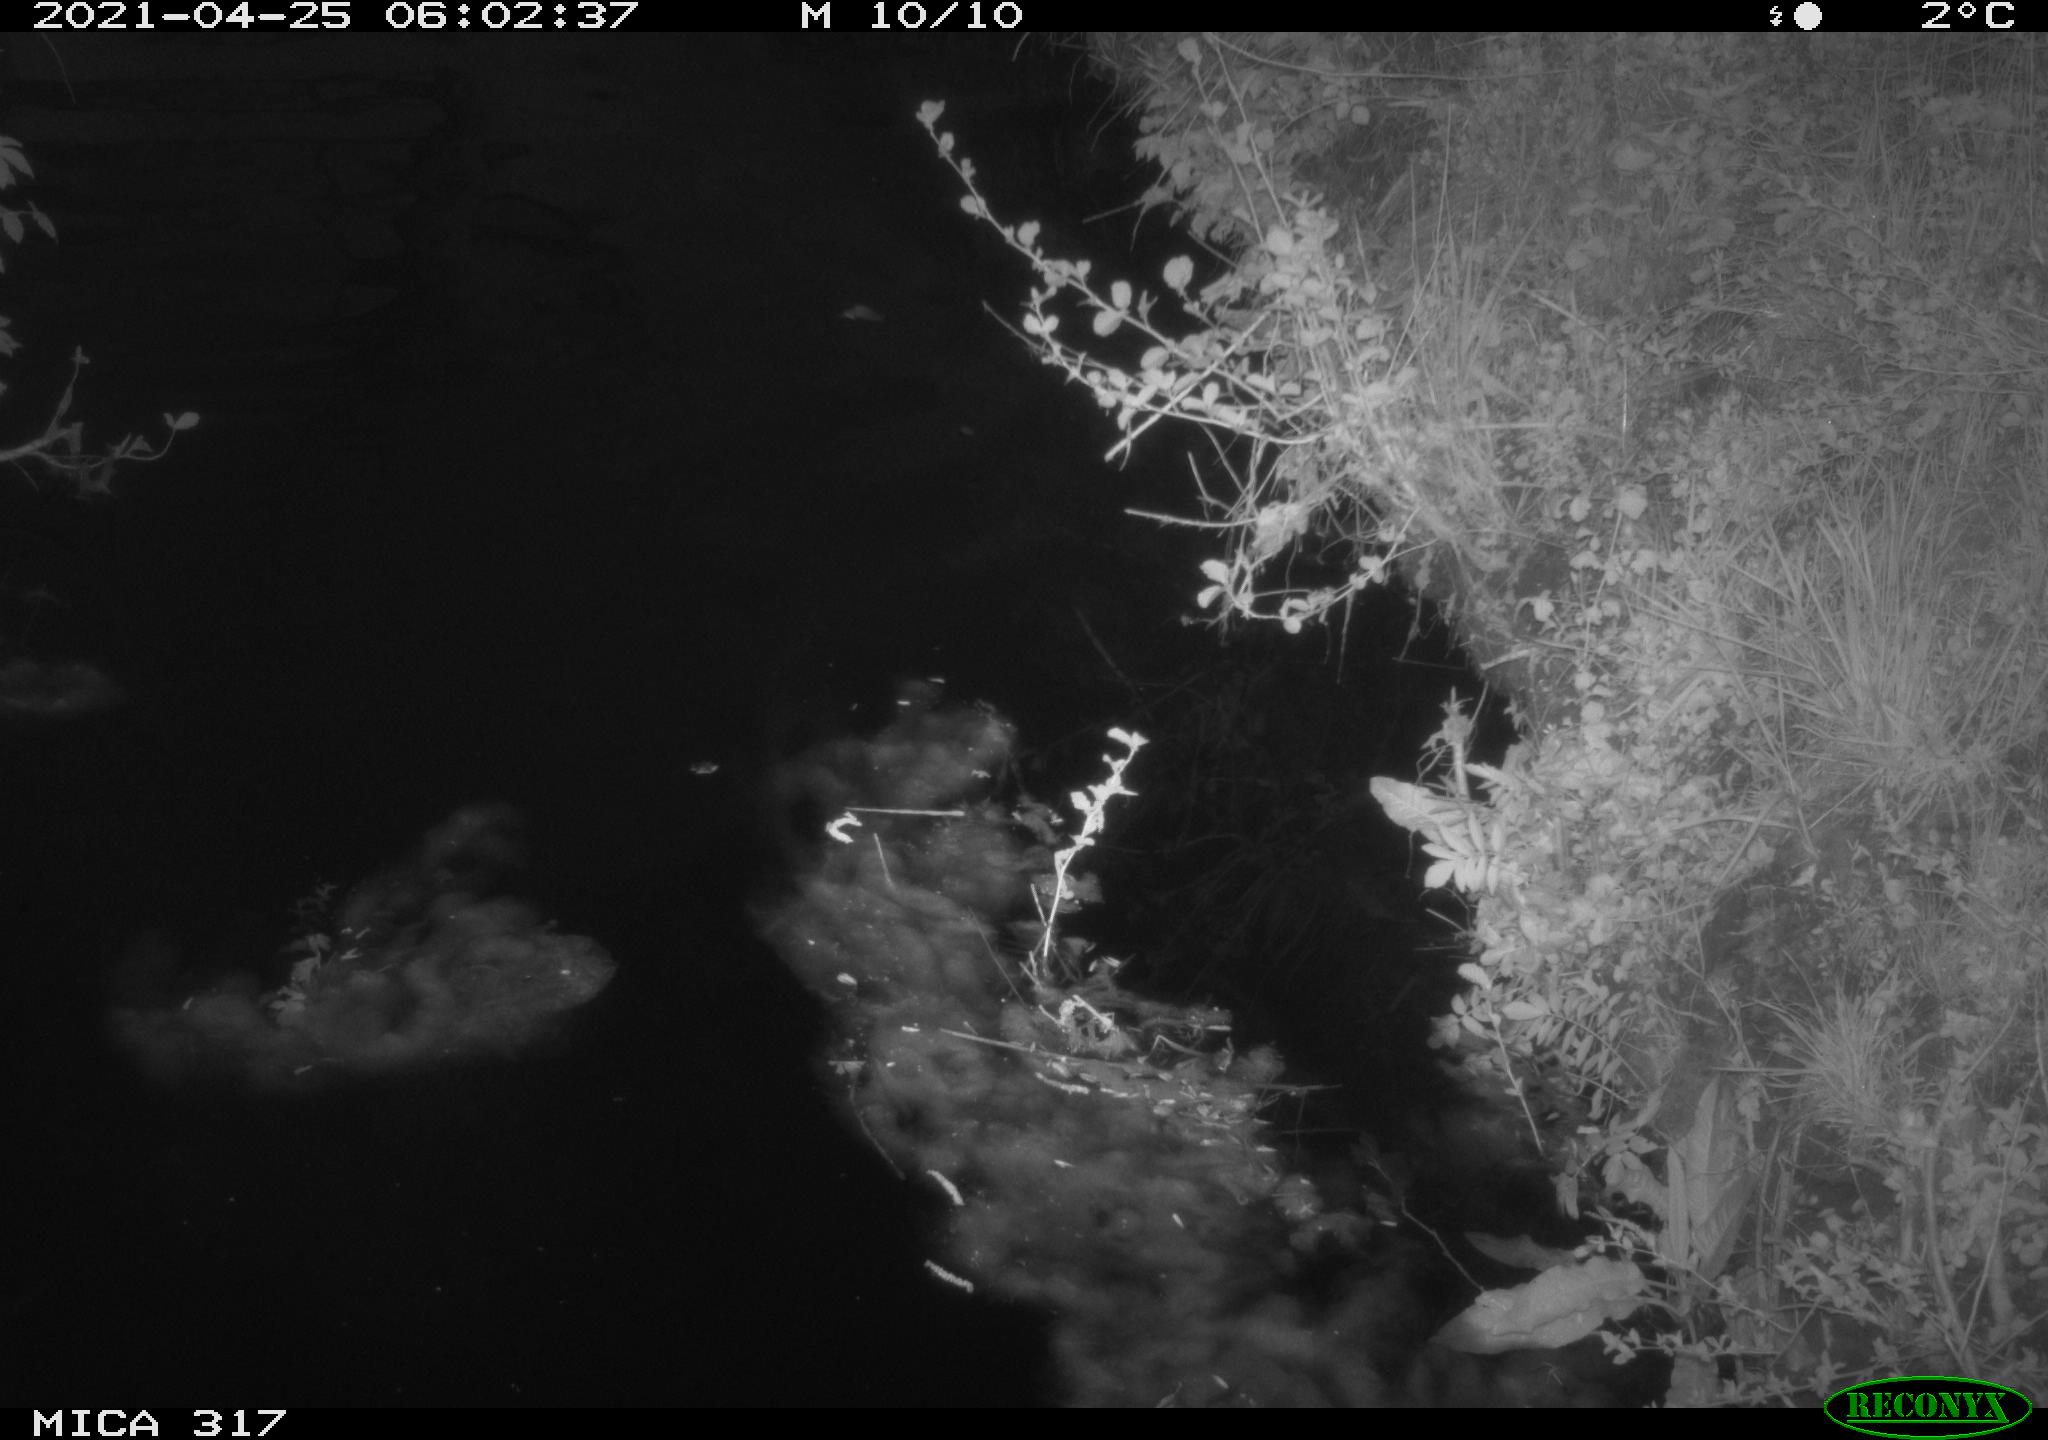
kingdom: Animalia
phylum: Chordata
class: Aves
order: Anseriformes
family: Anatidae
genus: Anas
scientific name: Anas
